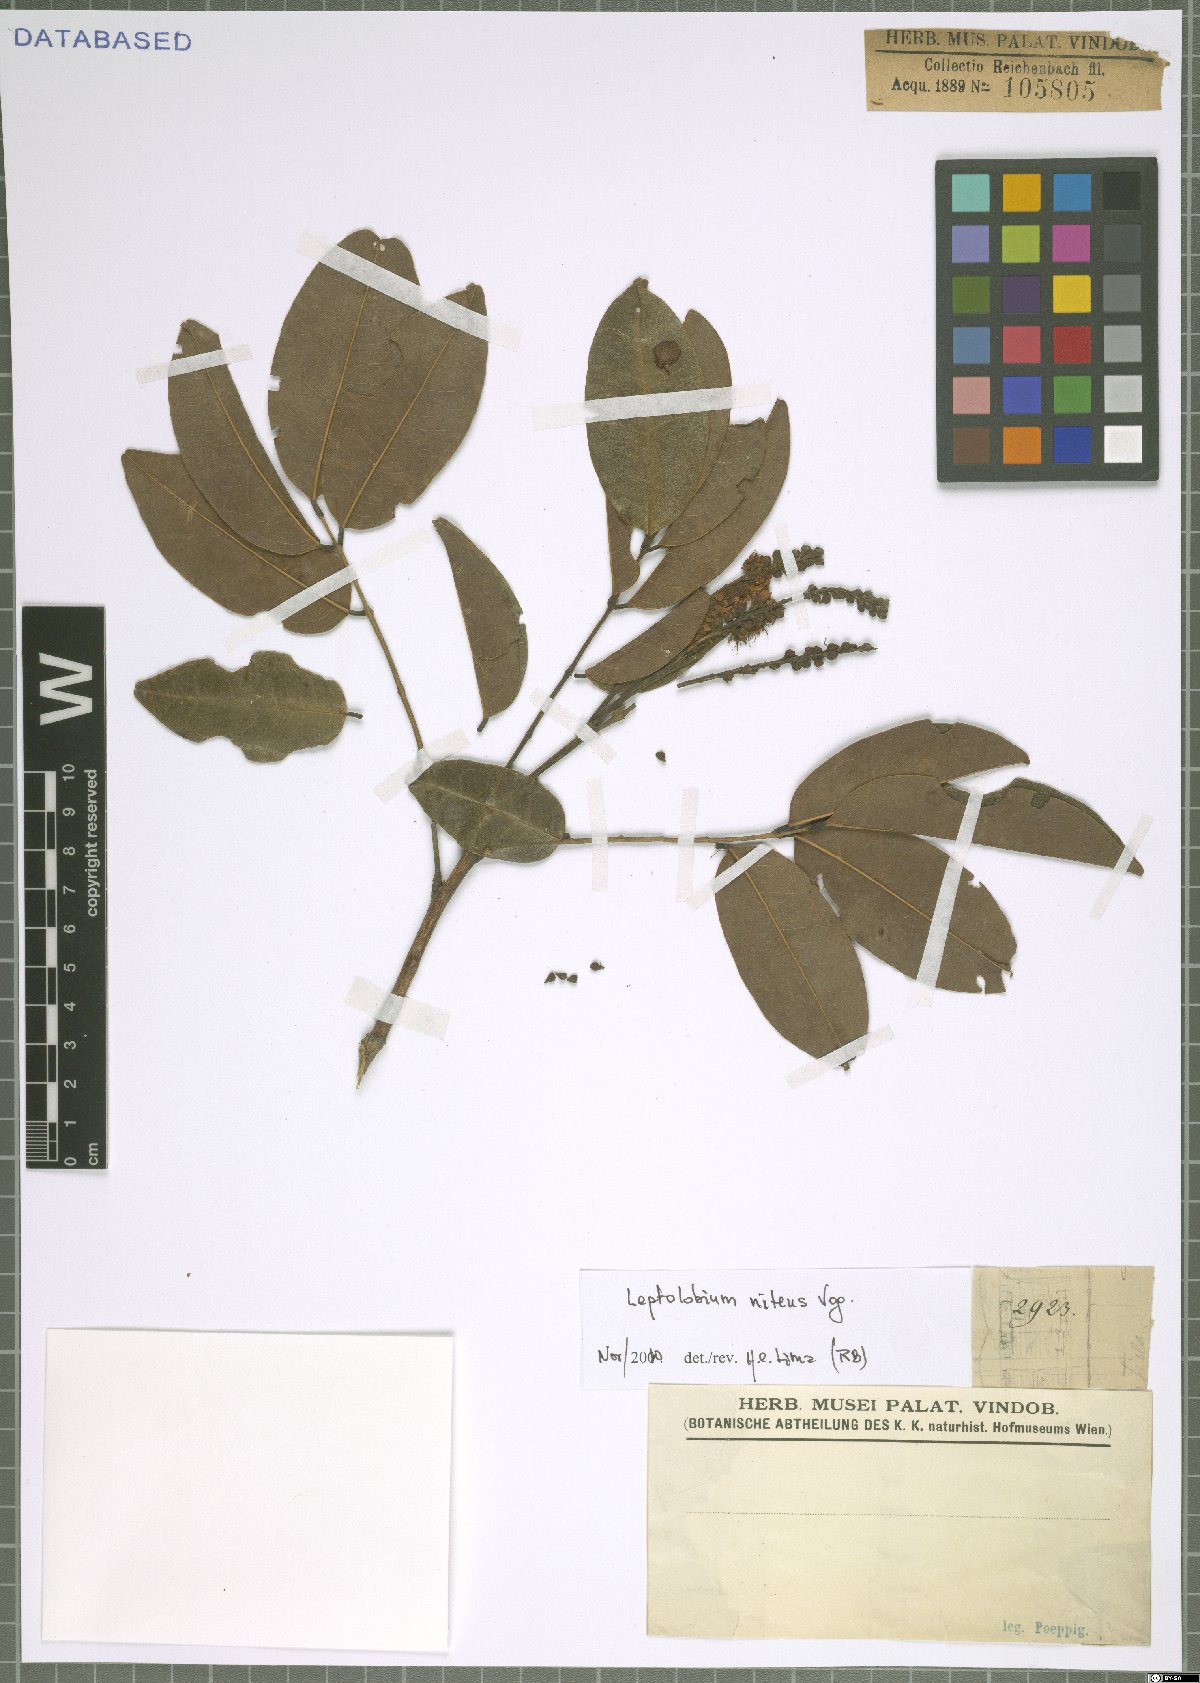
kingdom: Plantae
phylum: Tracheophyta
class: Magnoliopsida
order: Fabales
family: Fabaceae
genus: Leptolobium
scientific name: Leptolobium nitens
